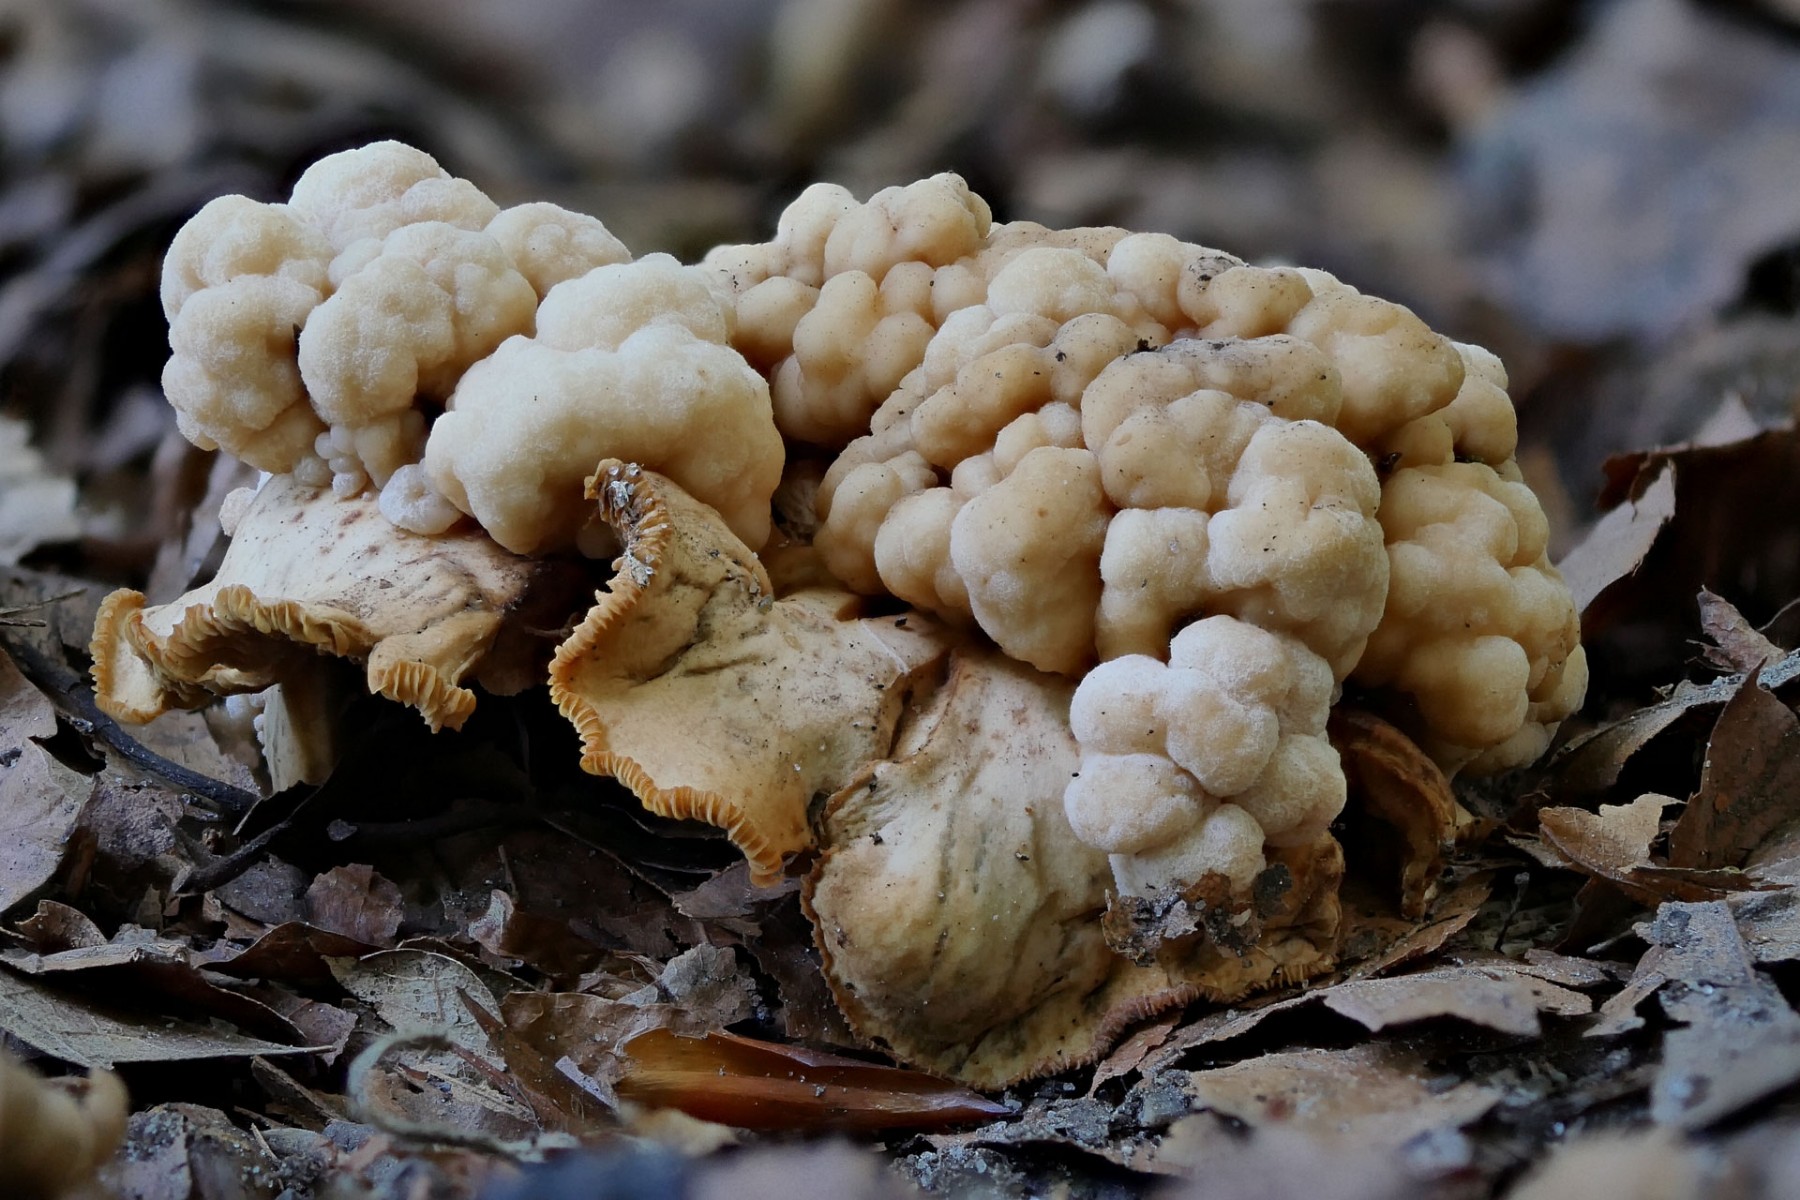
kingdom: Fungi
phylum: Basidiomycota
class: Tremellomycetes
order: Filobasidiales
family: Filobasidiaceae
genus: Syzygospora
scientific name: Syzygospora tumefaciens
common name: fladhatte-snyltehjerne
